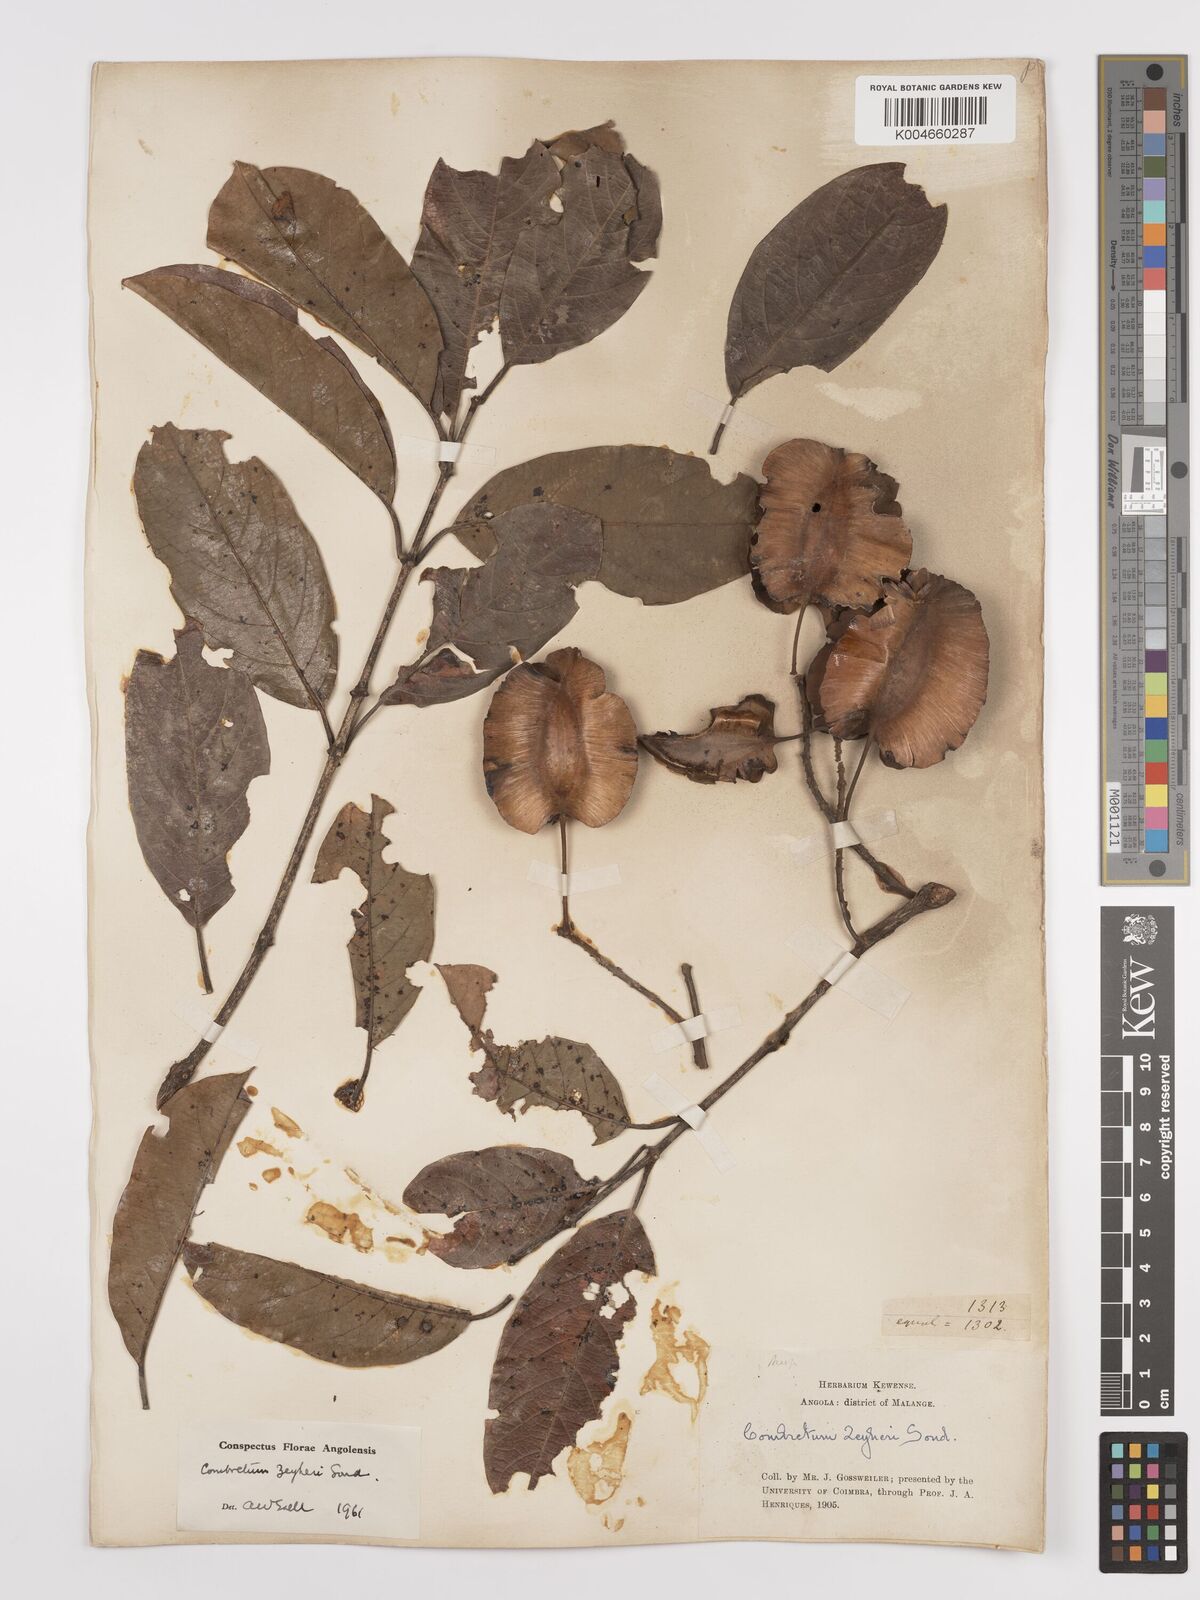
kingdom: Plantae
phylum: Tracheophyta
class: Magnoliopsida
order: Myrtales
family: Combretaceae
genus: Combretum
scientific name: Combretum zeyheri
